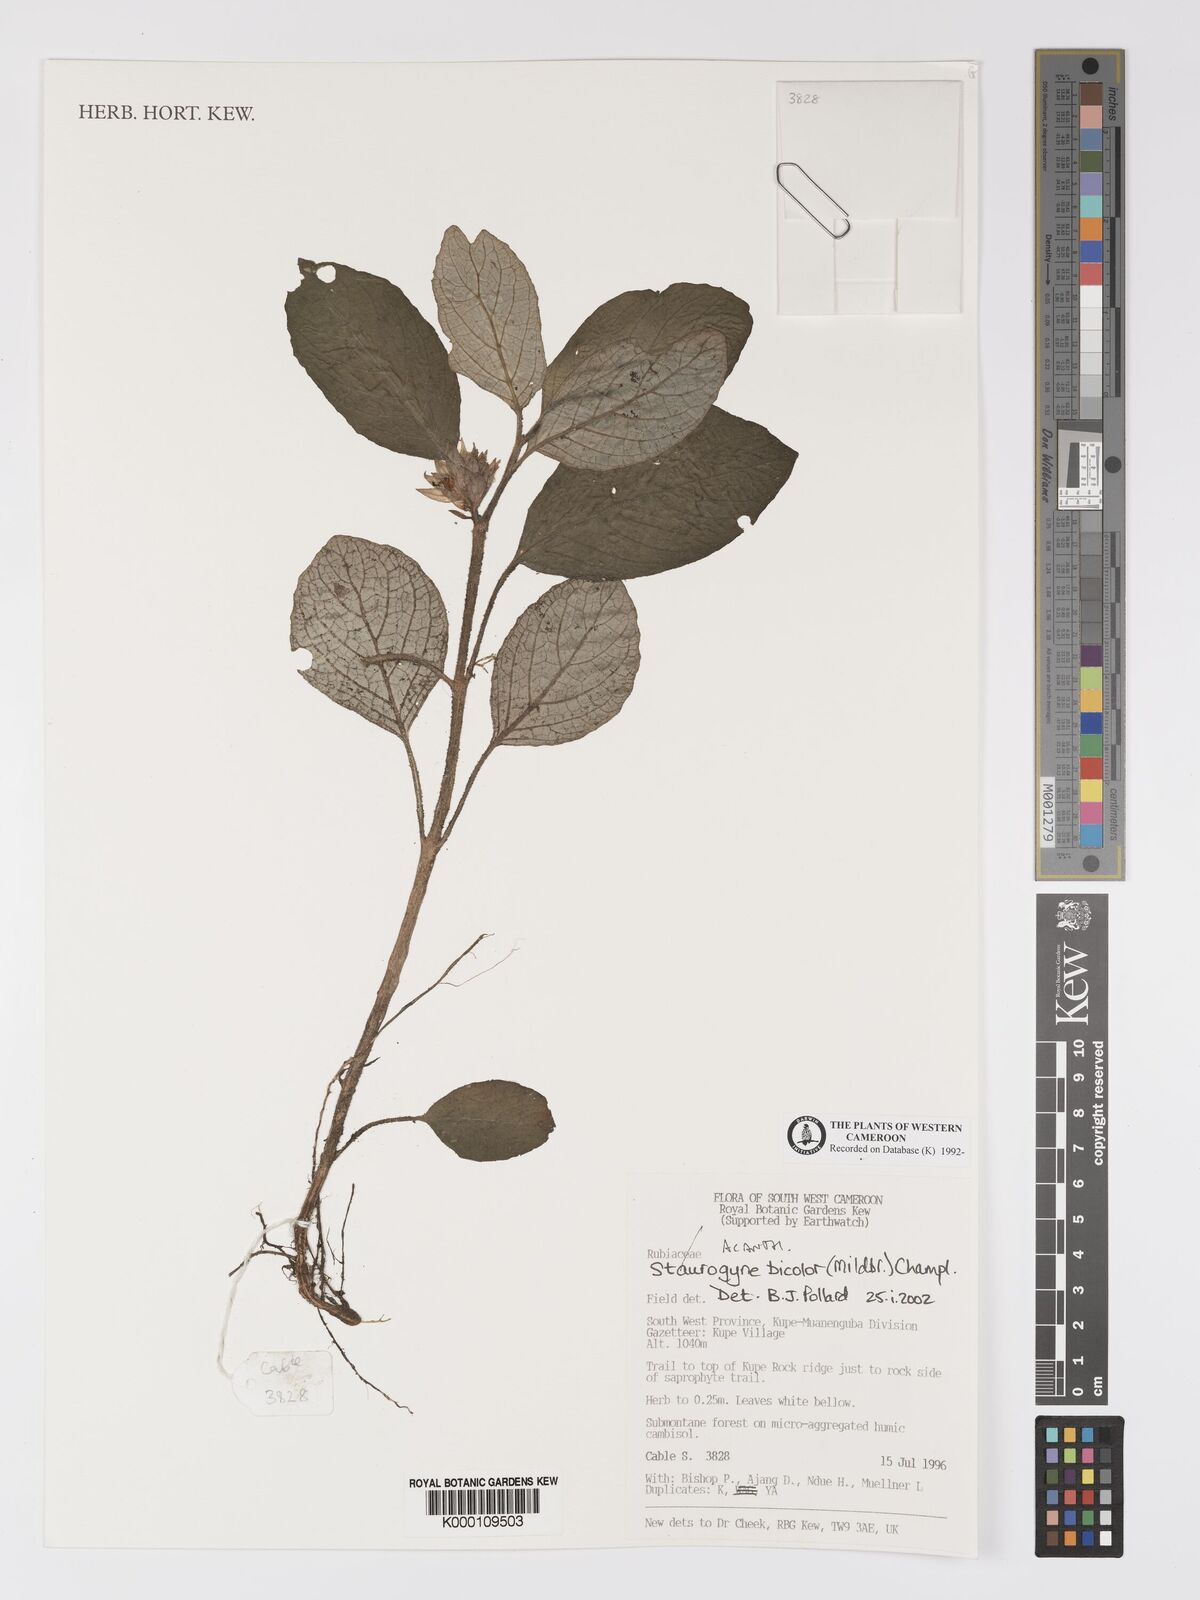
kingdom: Plantae
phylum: Tracheophyta
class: Magnoliopsida
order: Lamiales
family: Acanthaceae
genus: Staurogyne
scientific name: Staurogyne bicolor
